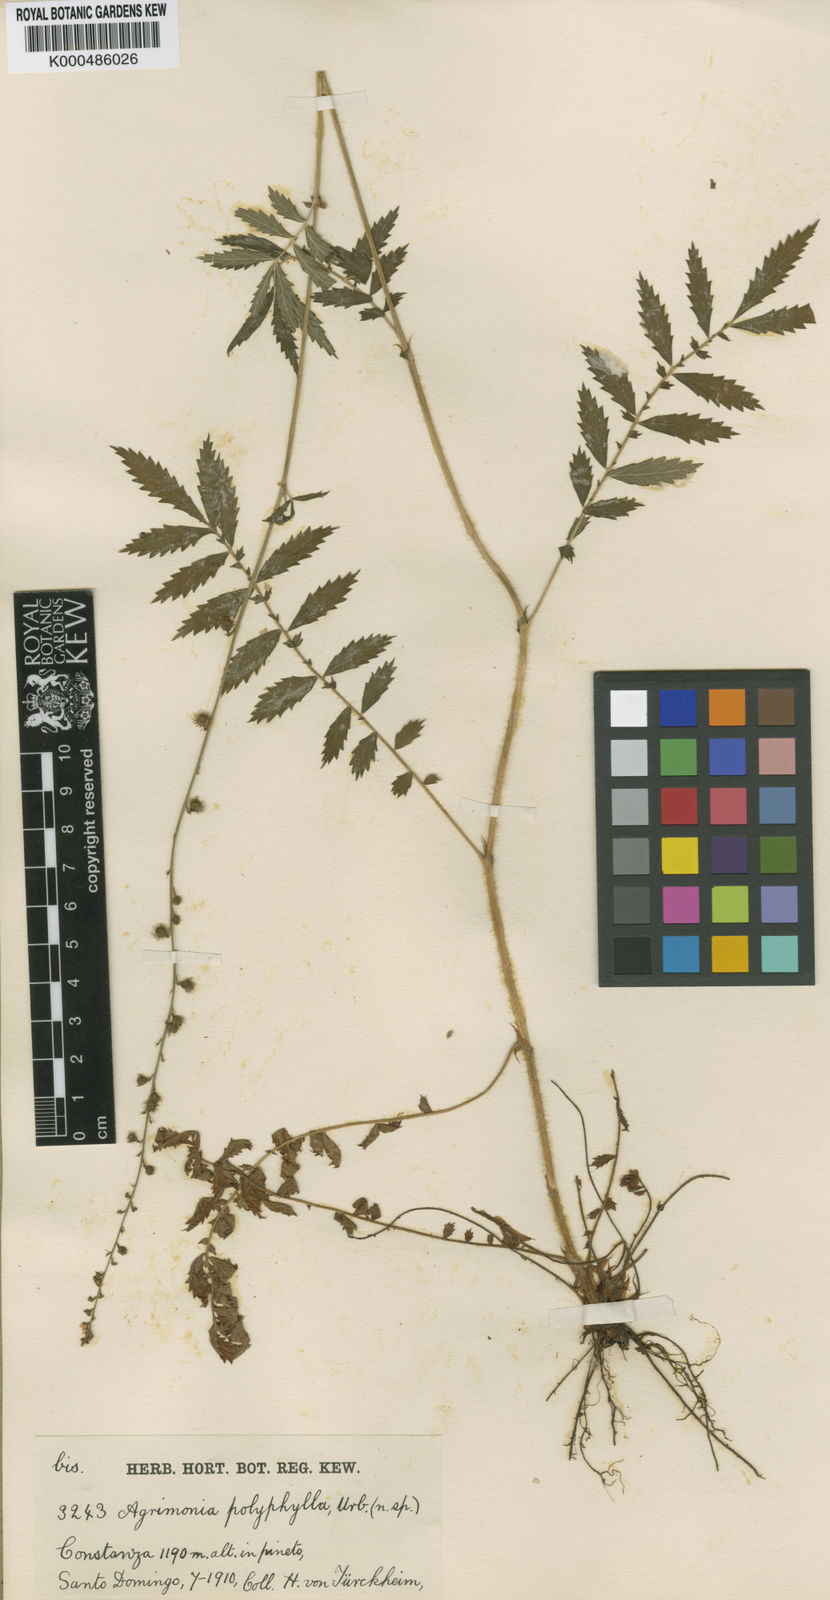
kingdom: Plantae
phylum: Tracheophyta
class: Magnoliopsida
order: Rosales
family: Rosaceae
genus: Agrimonia
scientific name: Agrimonia parviflora
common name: Harvest-lice
